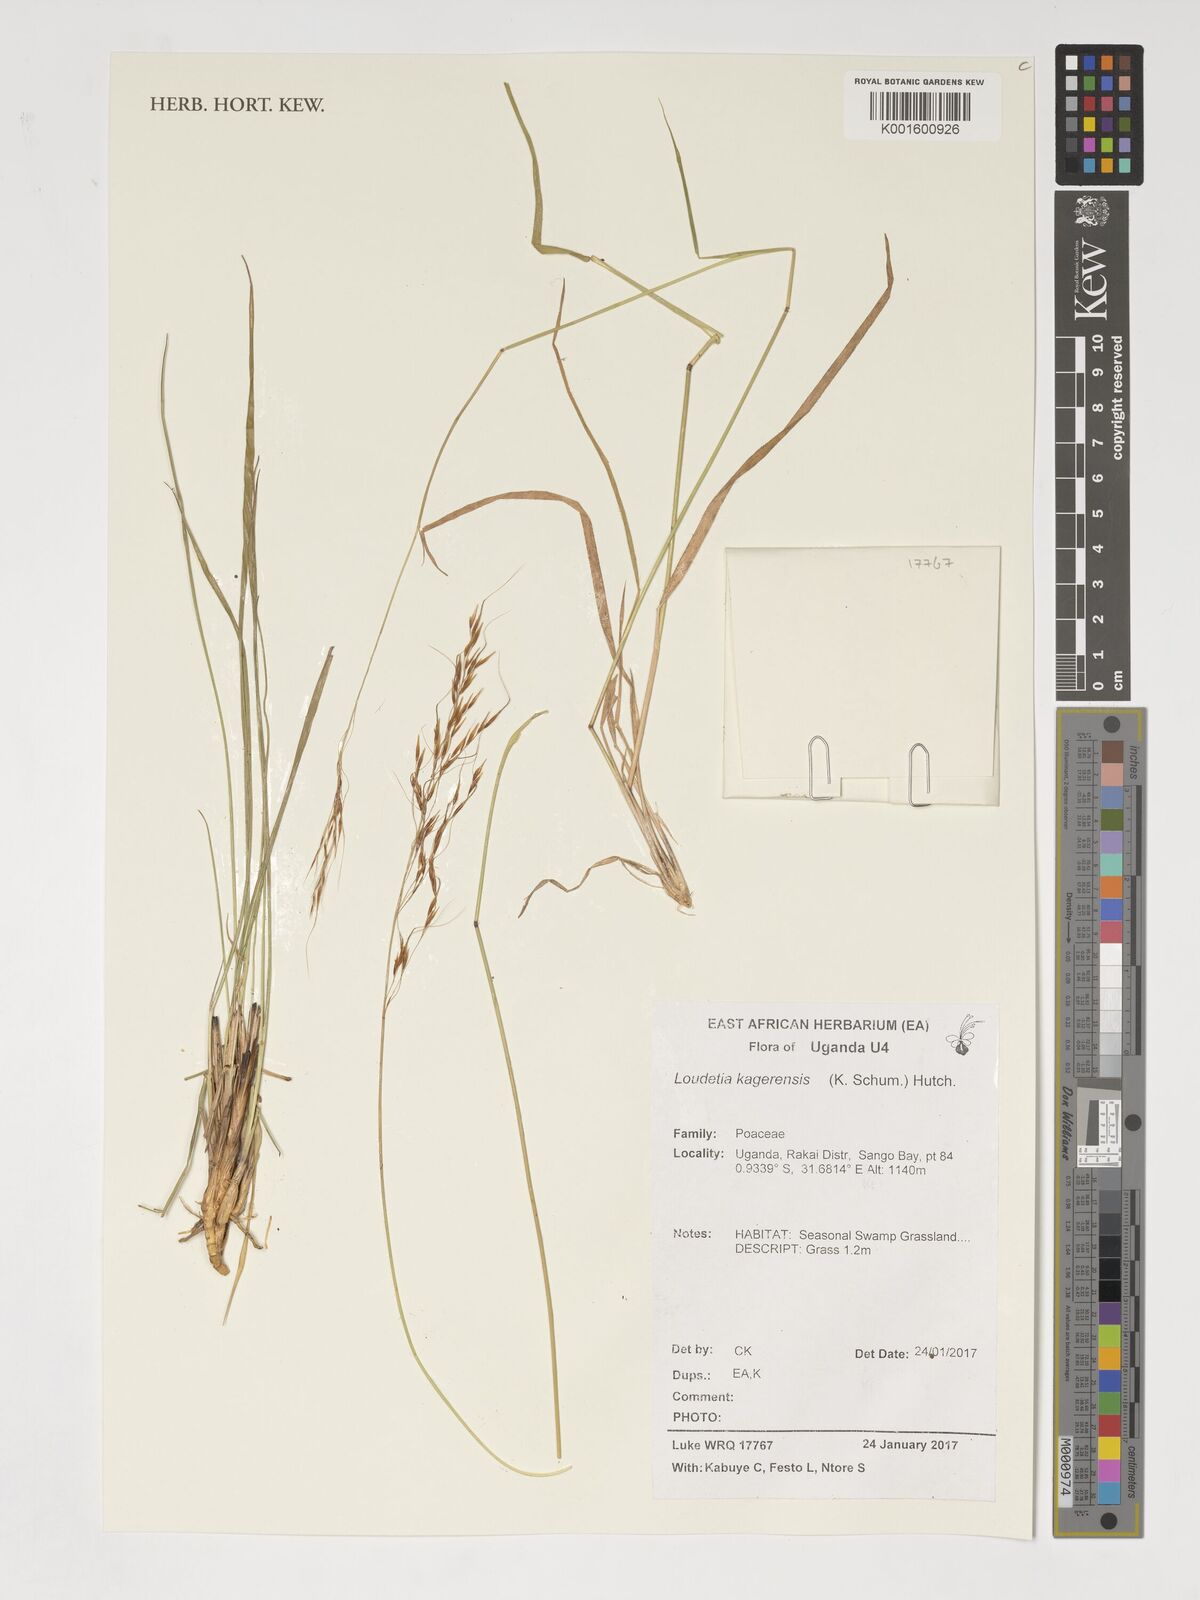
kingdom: Plantae
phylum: Tracheophyta
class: Liliopsida
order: Poales
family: Poaceae
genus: Loudetia
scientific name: Loudetia kagerensis
